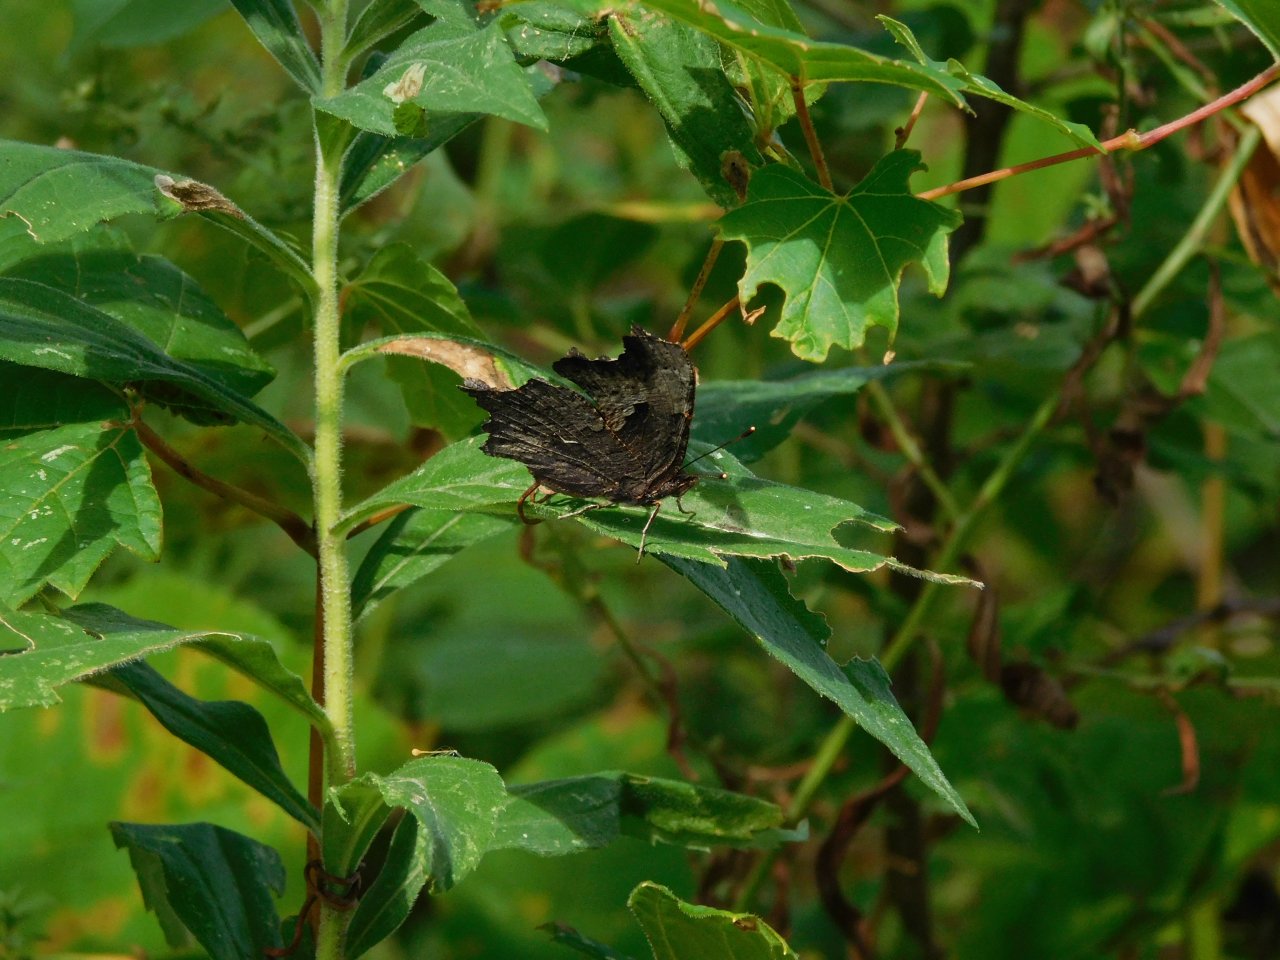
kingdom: Animalia
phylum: Arthropoda
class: Insecta
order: Lepidoptera
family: Nymphalidae
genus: Polygonia
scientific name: Polygonia progne
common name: Gray Comma
